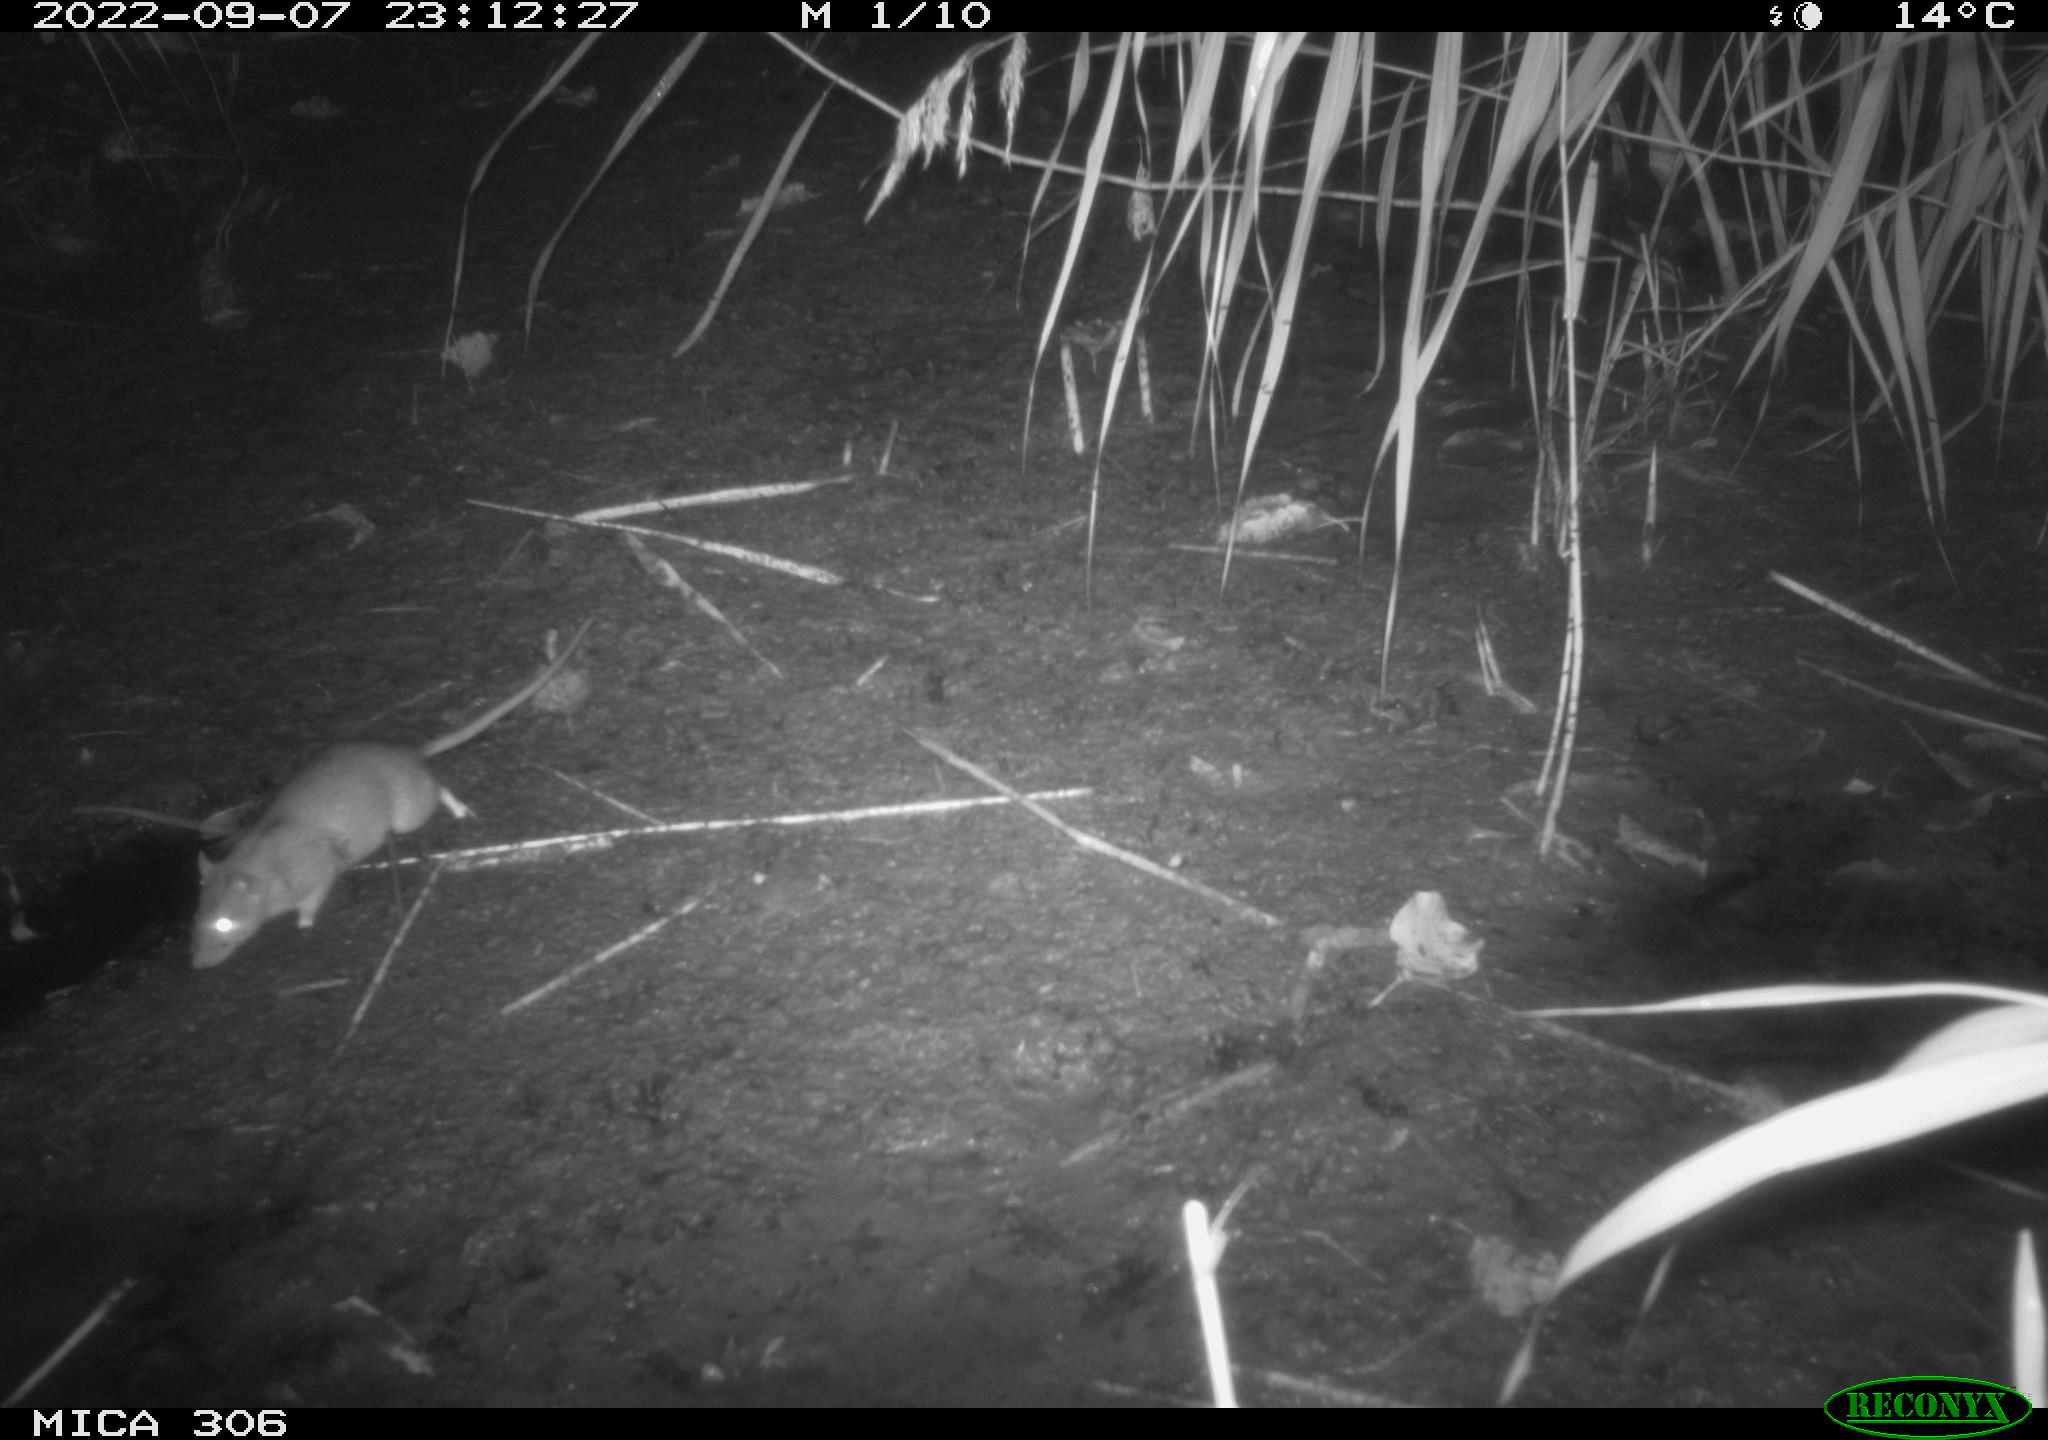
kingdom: Animalia
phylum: Chordata
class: Mammalia
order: Rodentia
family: Muridae
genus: Rattus
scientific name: Rattus norvegicus
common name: Brown rat
